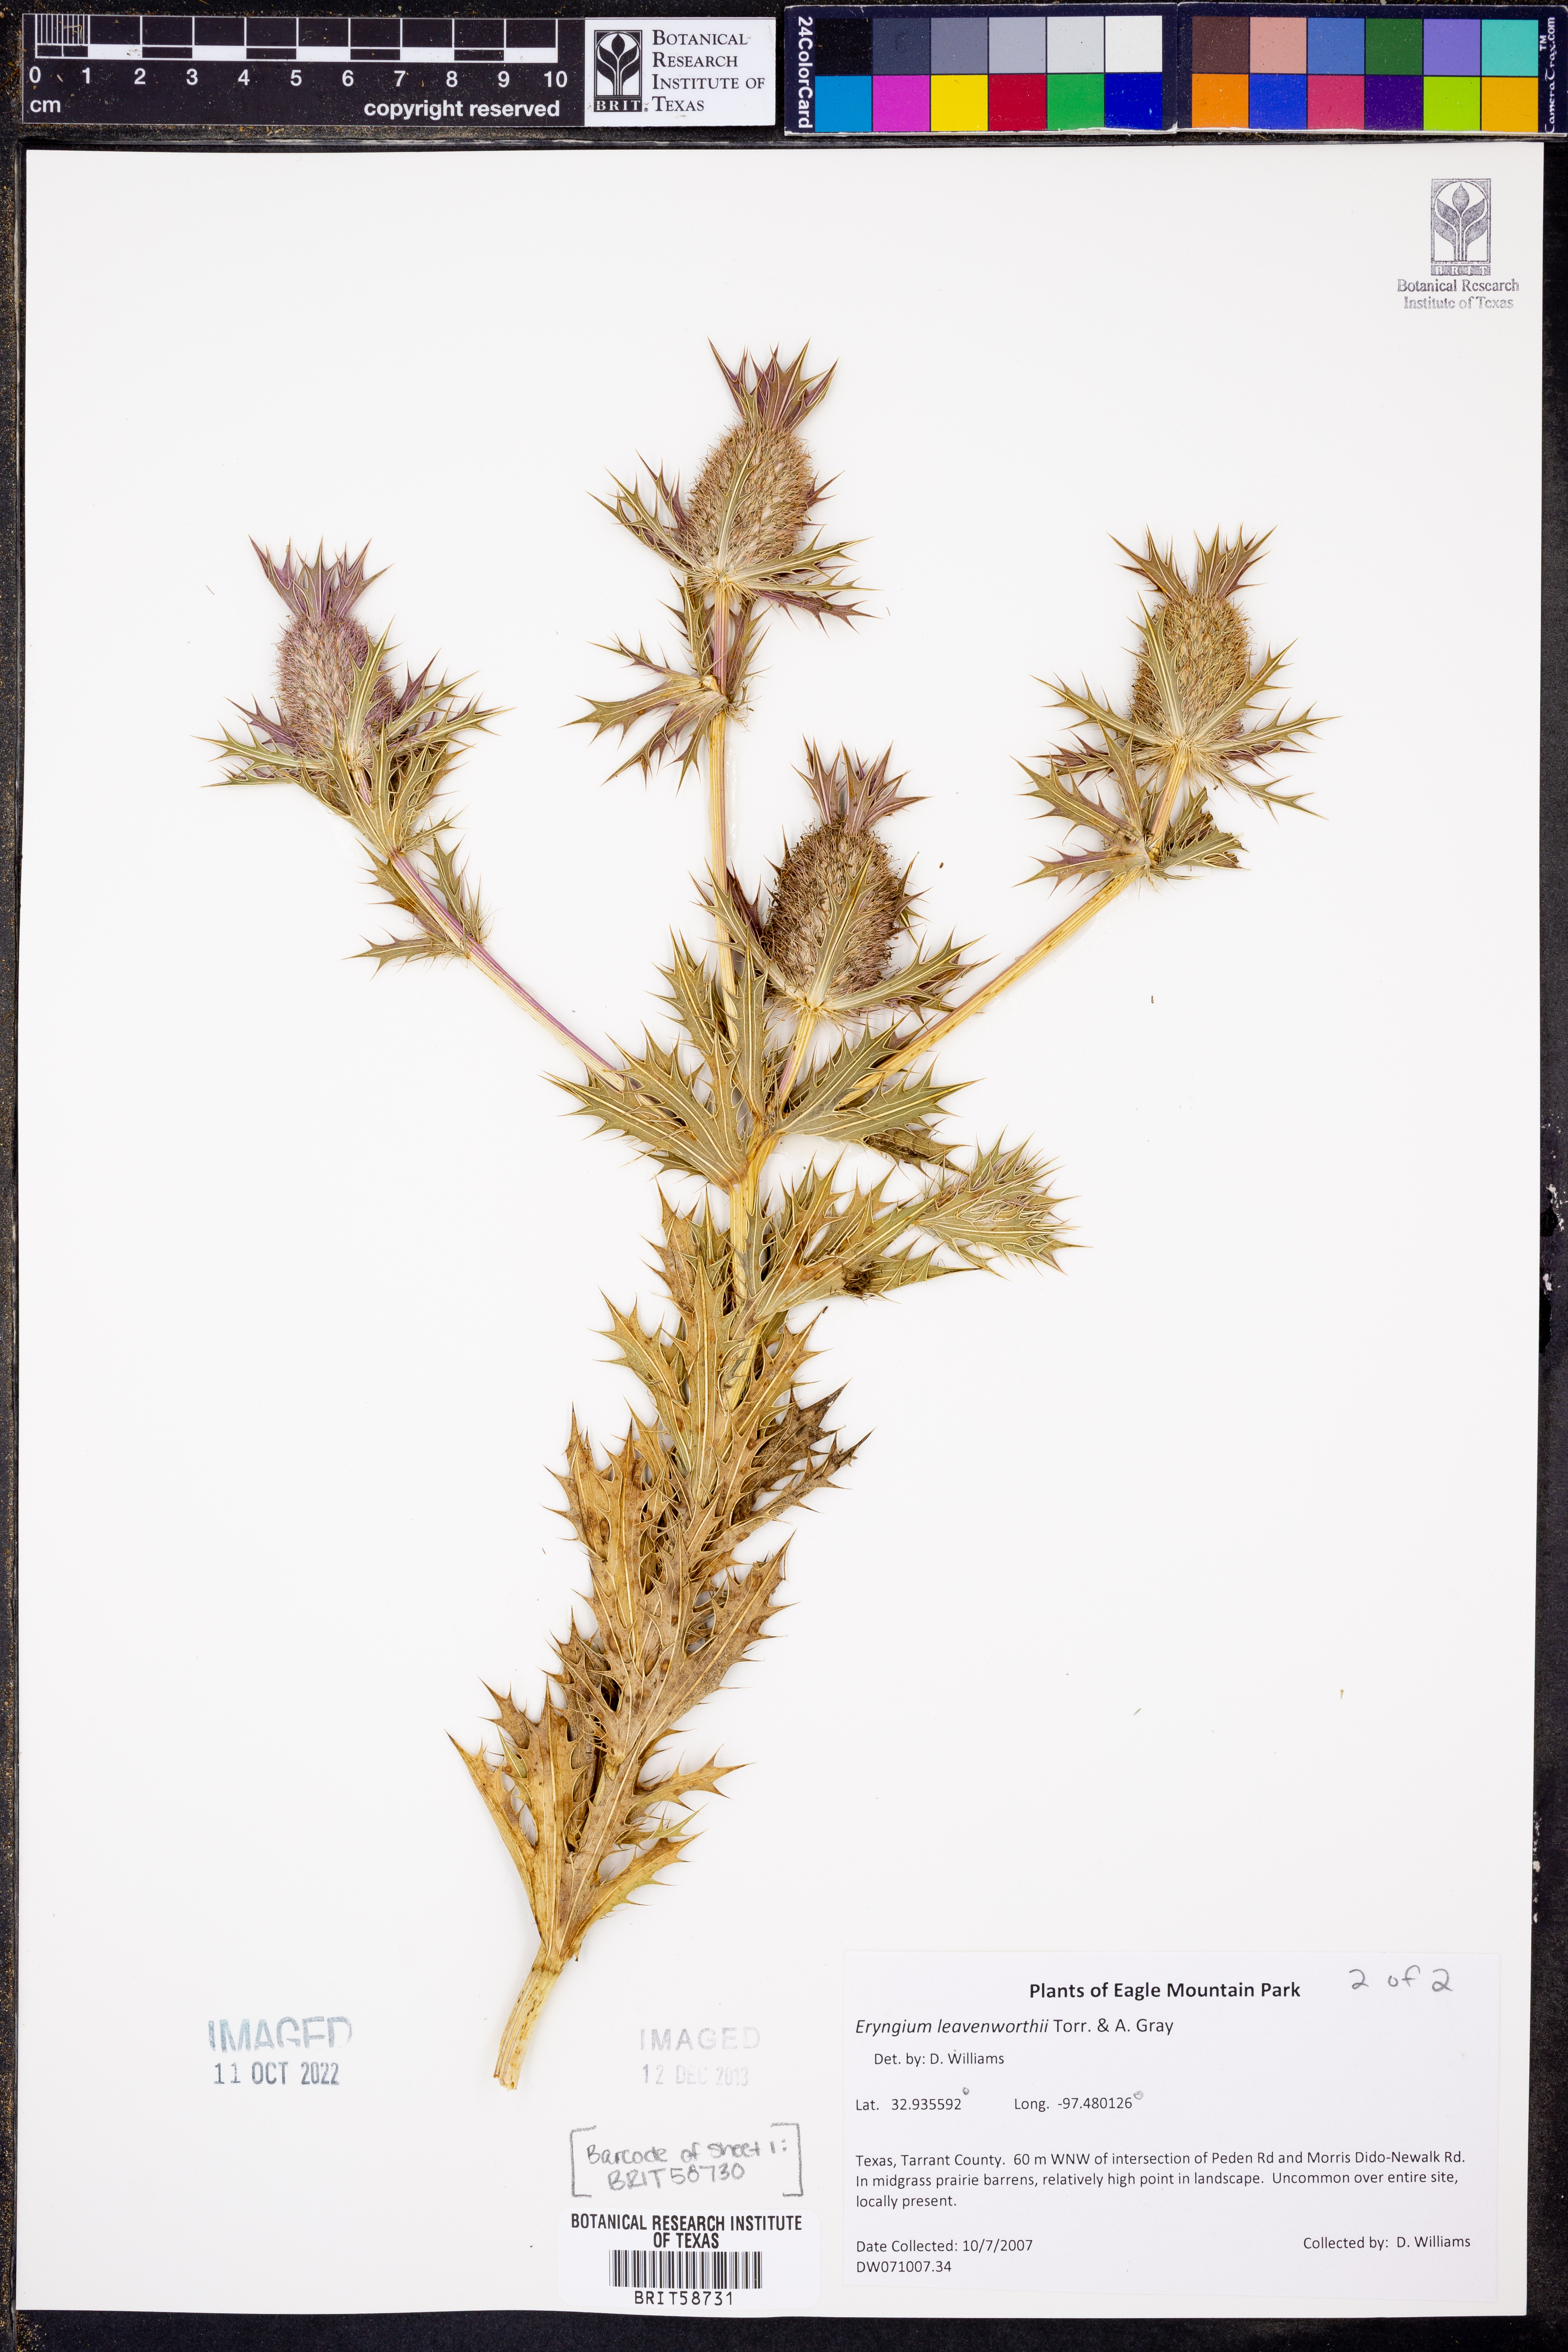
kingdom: Plantae
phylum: Tracheophyta
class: Magnoliopsida
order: Apiales
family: Apiaceae
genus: Eryngium
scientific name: Eryngium leavenworthii
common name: Leavenworth's eryngo
